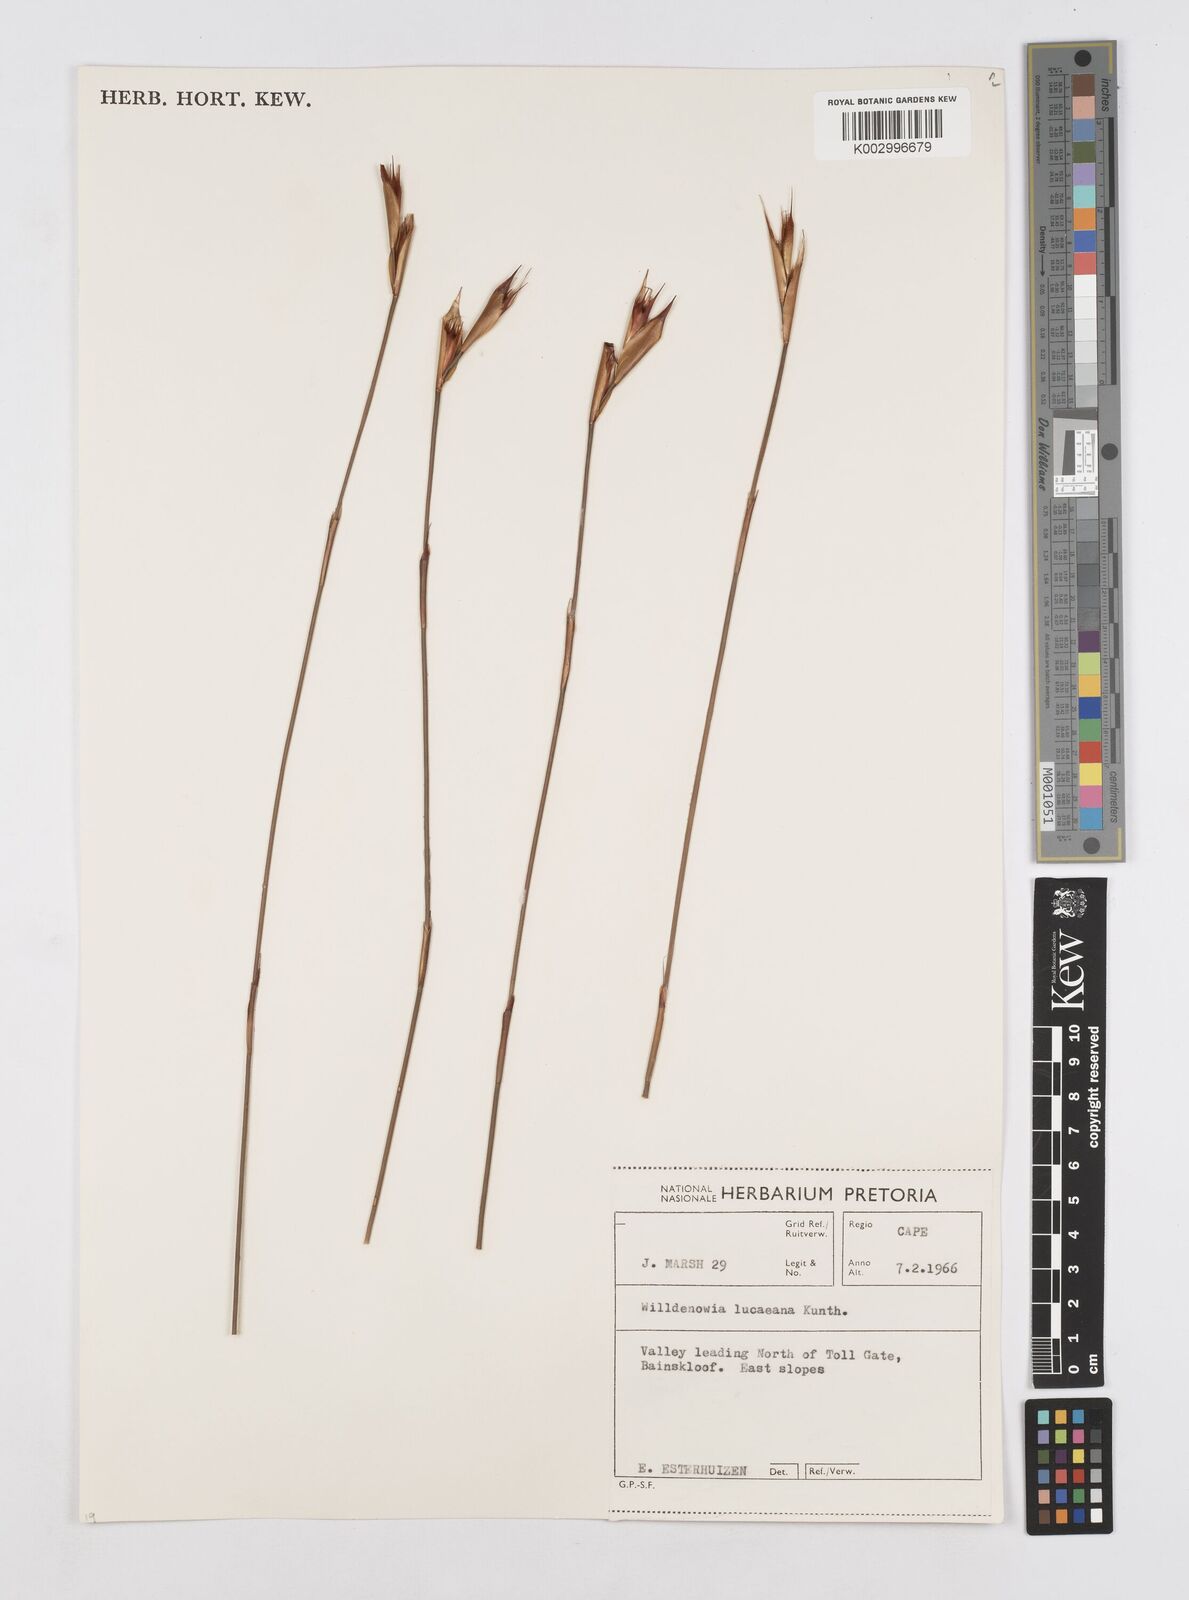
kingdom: Plantae
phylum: Tracheophyta
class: Liliopsida
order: Poales
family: Restionaceae
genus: Willdenowia
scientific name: Willdenowia glomerata
